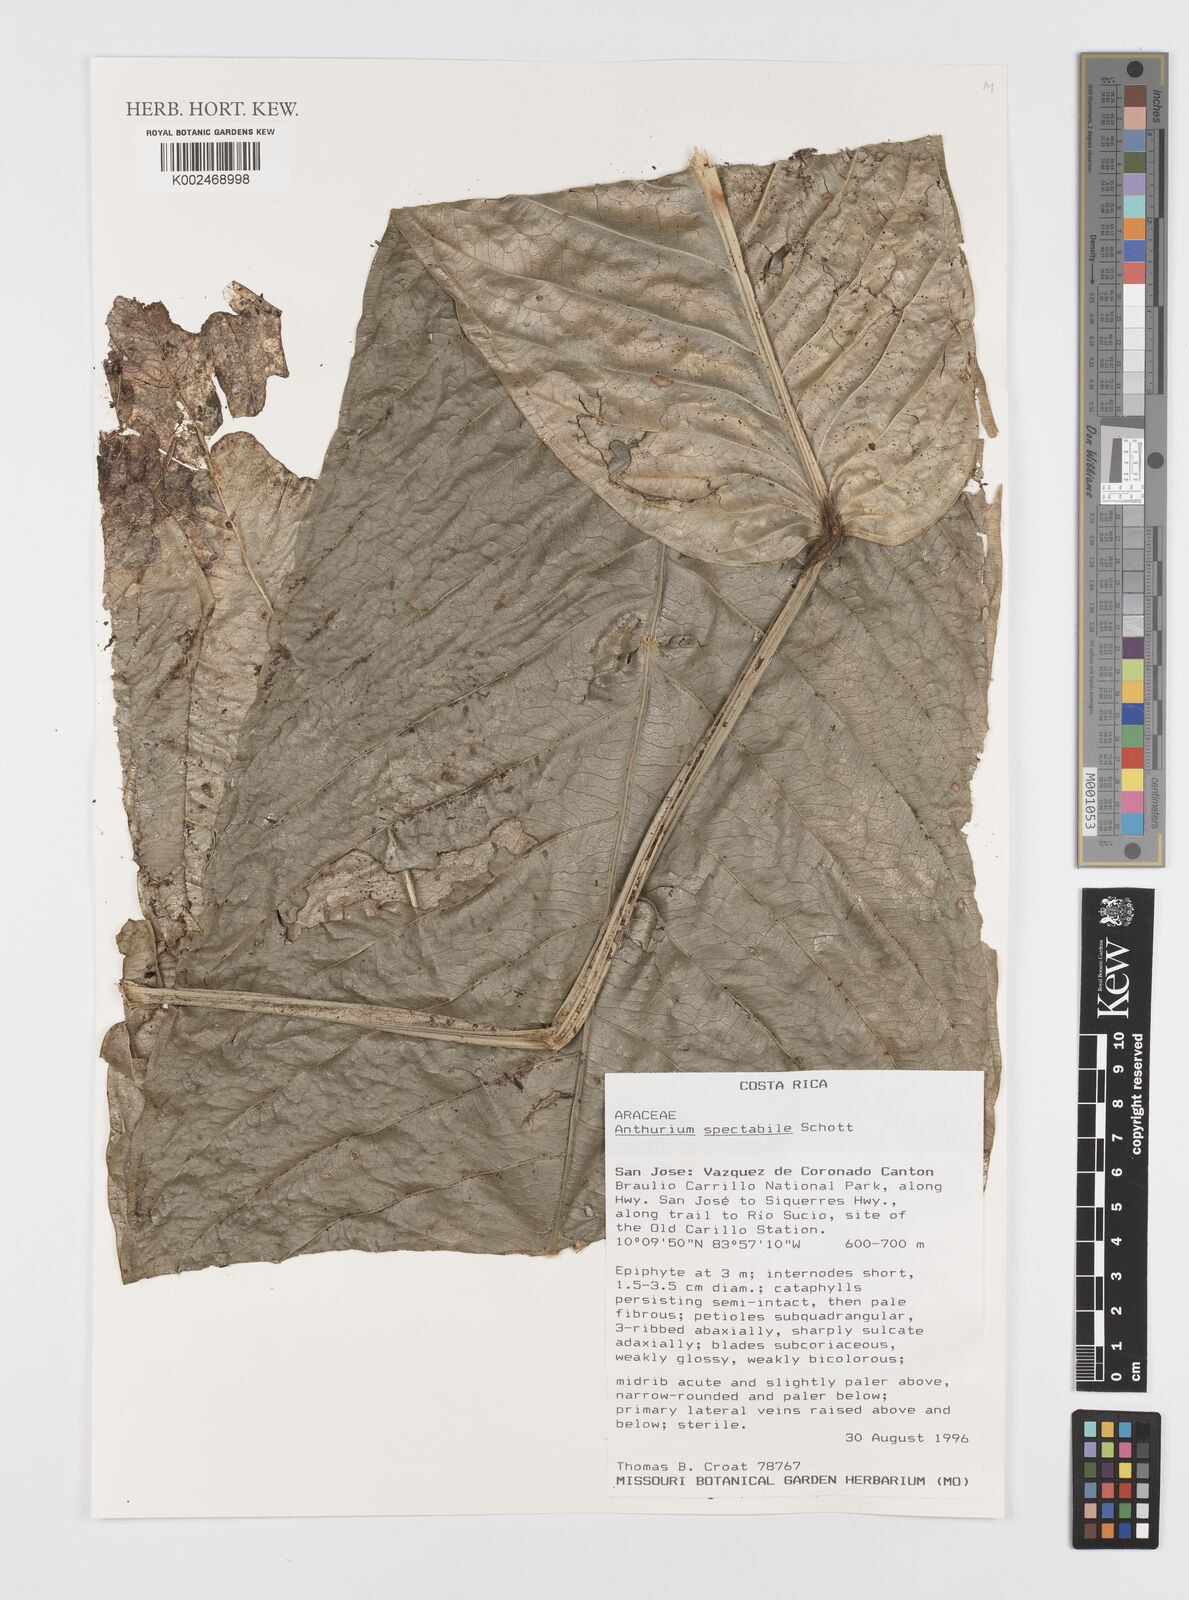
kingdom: Plantae
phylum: Tracheophyta
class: Liliopsida
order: Alismatales
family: Araceae
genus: Anthurium
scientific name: Anthurium spectabile
